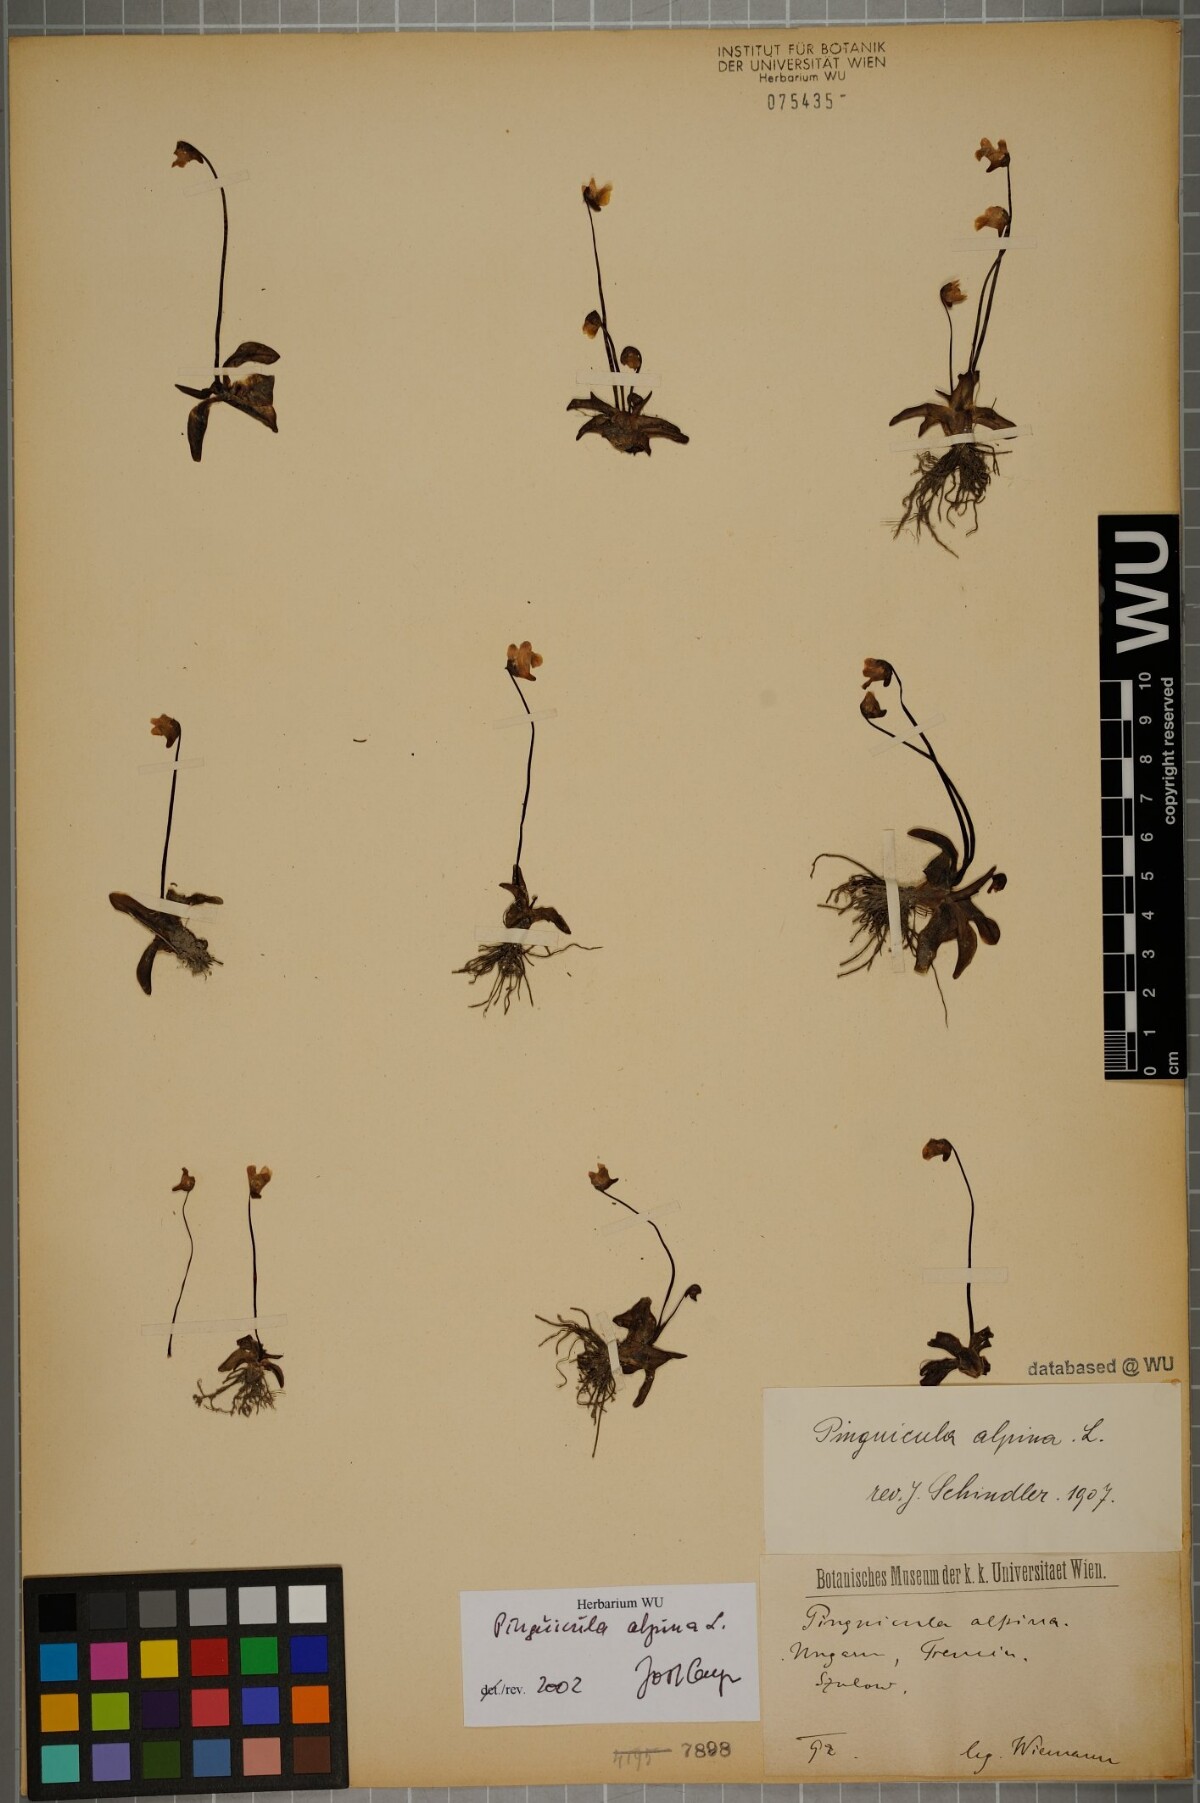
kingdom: Plantae
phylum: Tracheophyta
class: Magnoliopsida
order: Lamiales
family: Lentibulariaceae
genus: Pinguicula
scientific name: Pinguicula alpina
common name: Alpine butterwort
